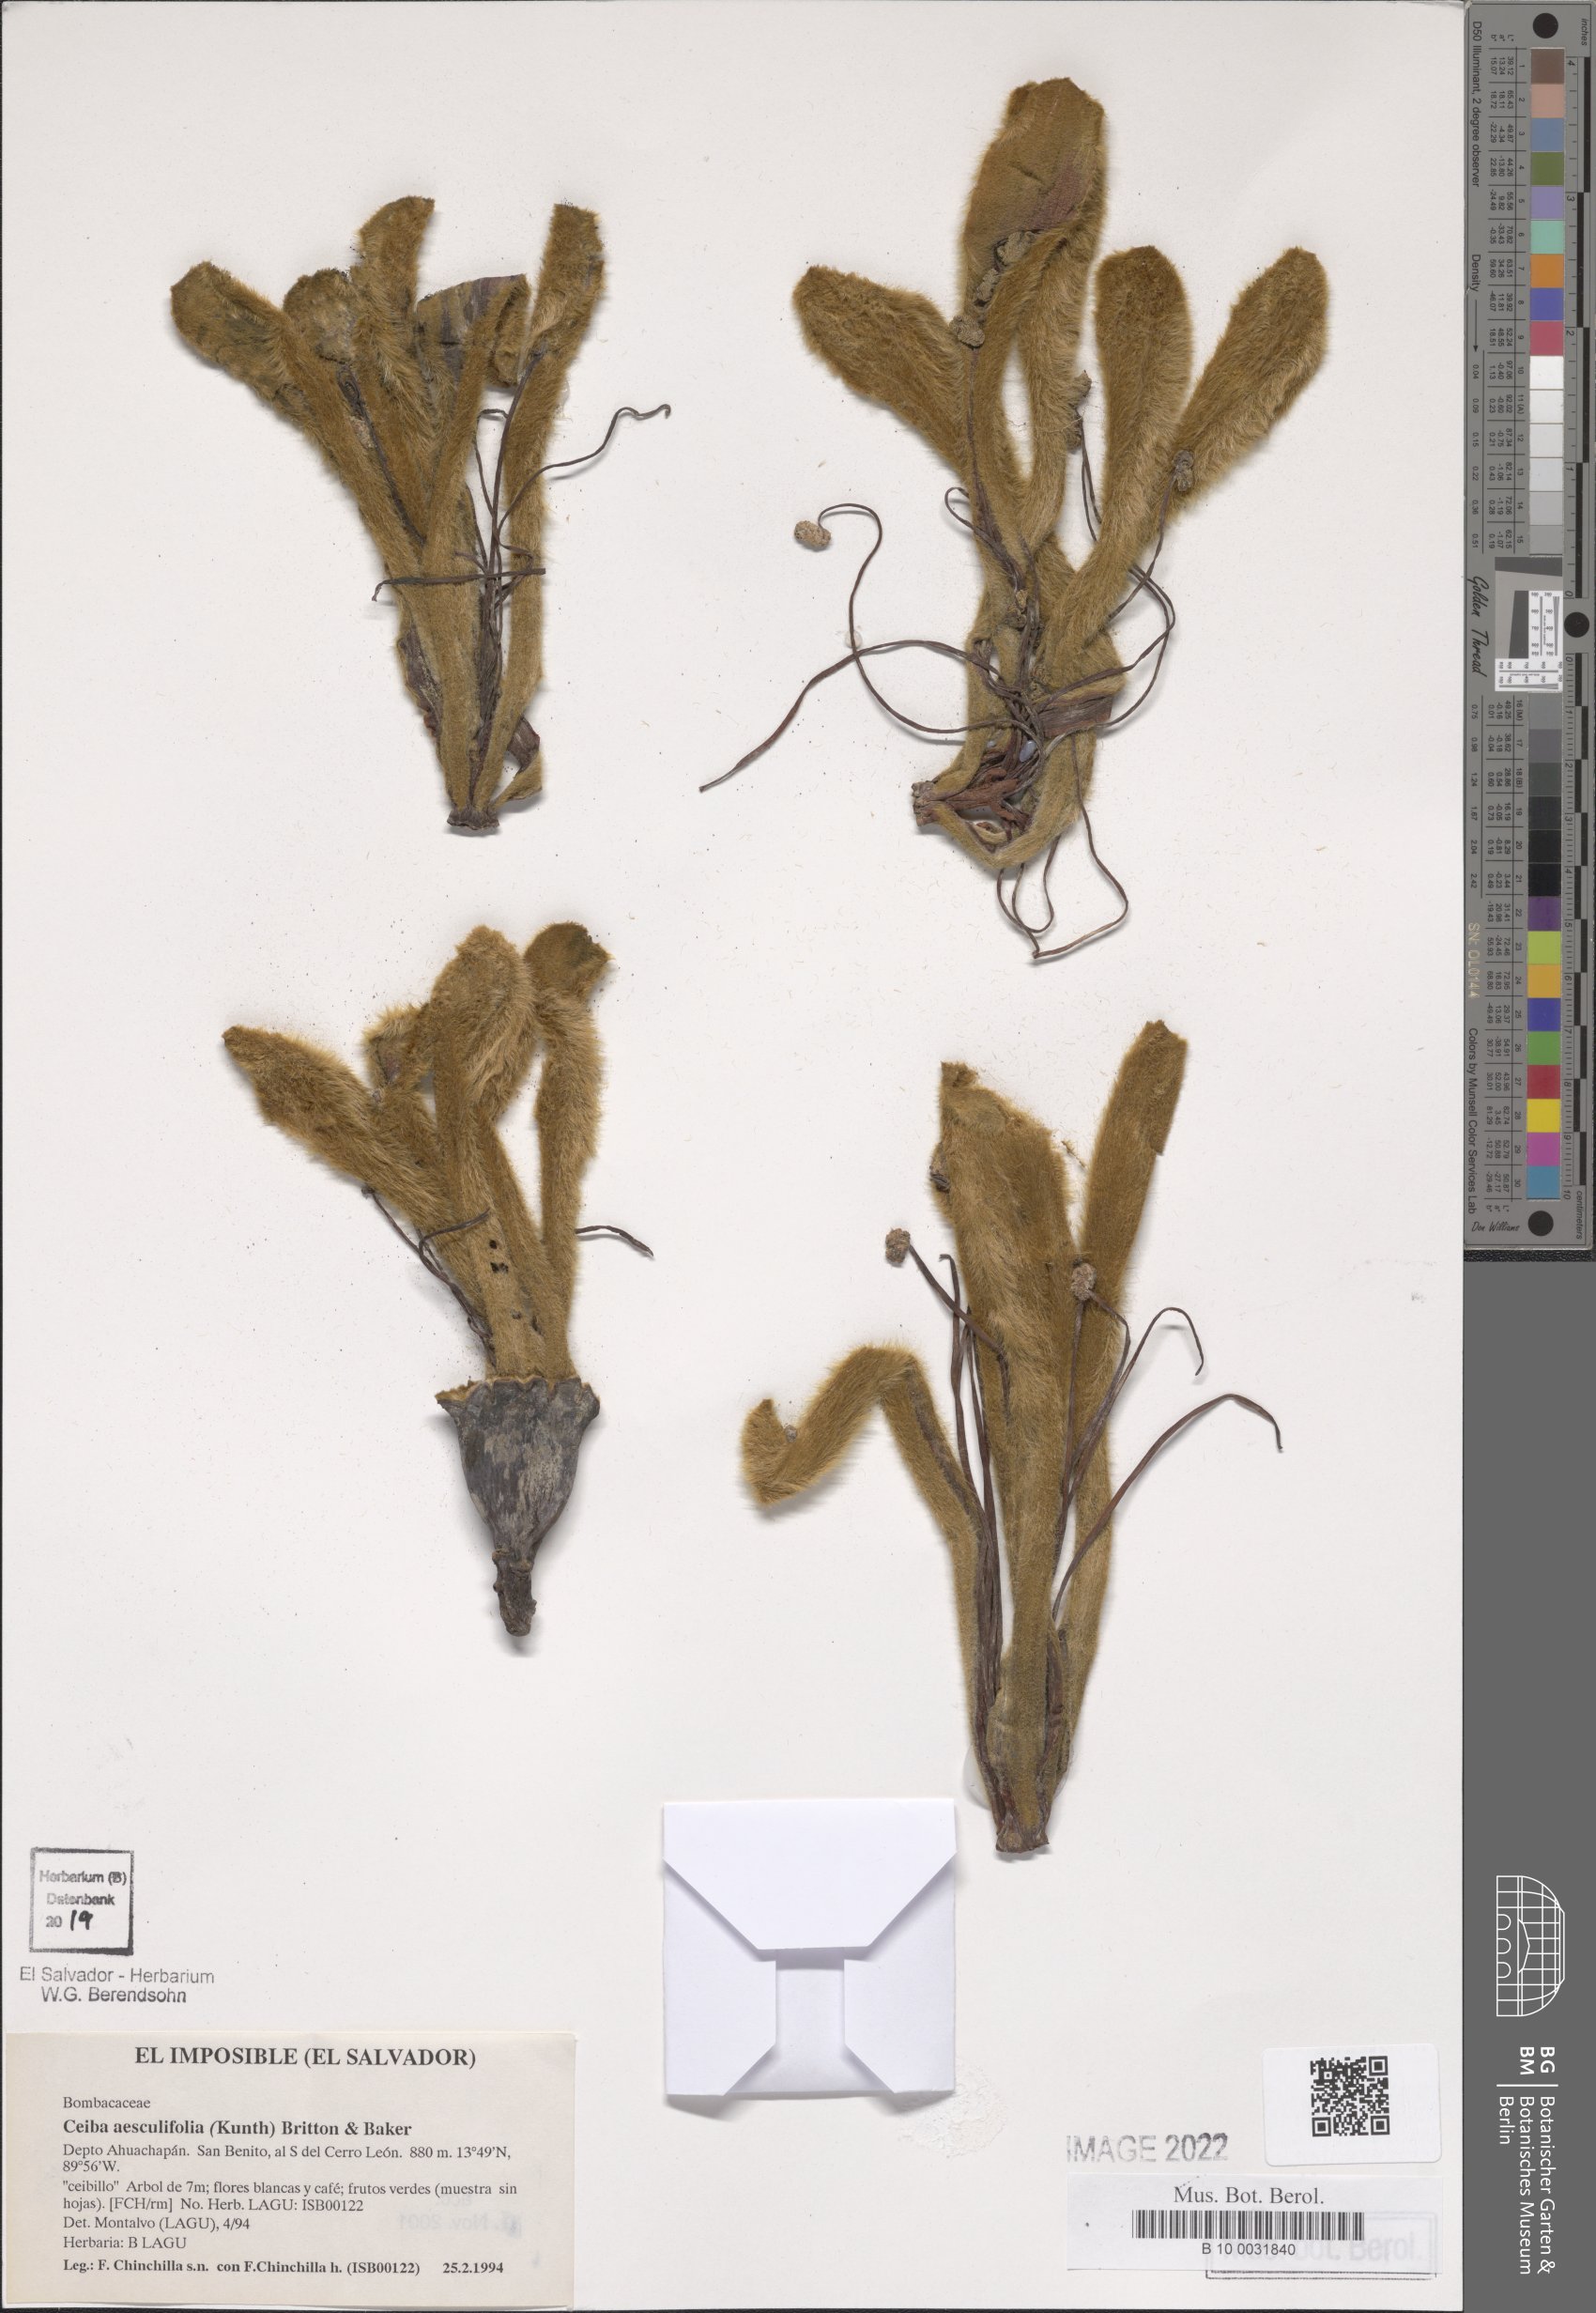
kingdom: Plantae
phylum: Tracheophyta
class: Magnoliopsida
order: Malvales
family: Malvaceae
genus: Ceiba
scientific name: Ceiba aesculifolia
